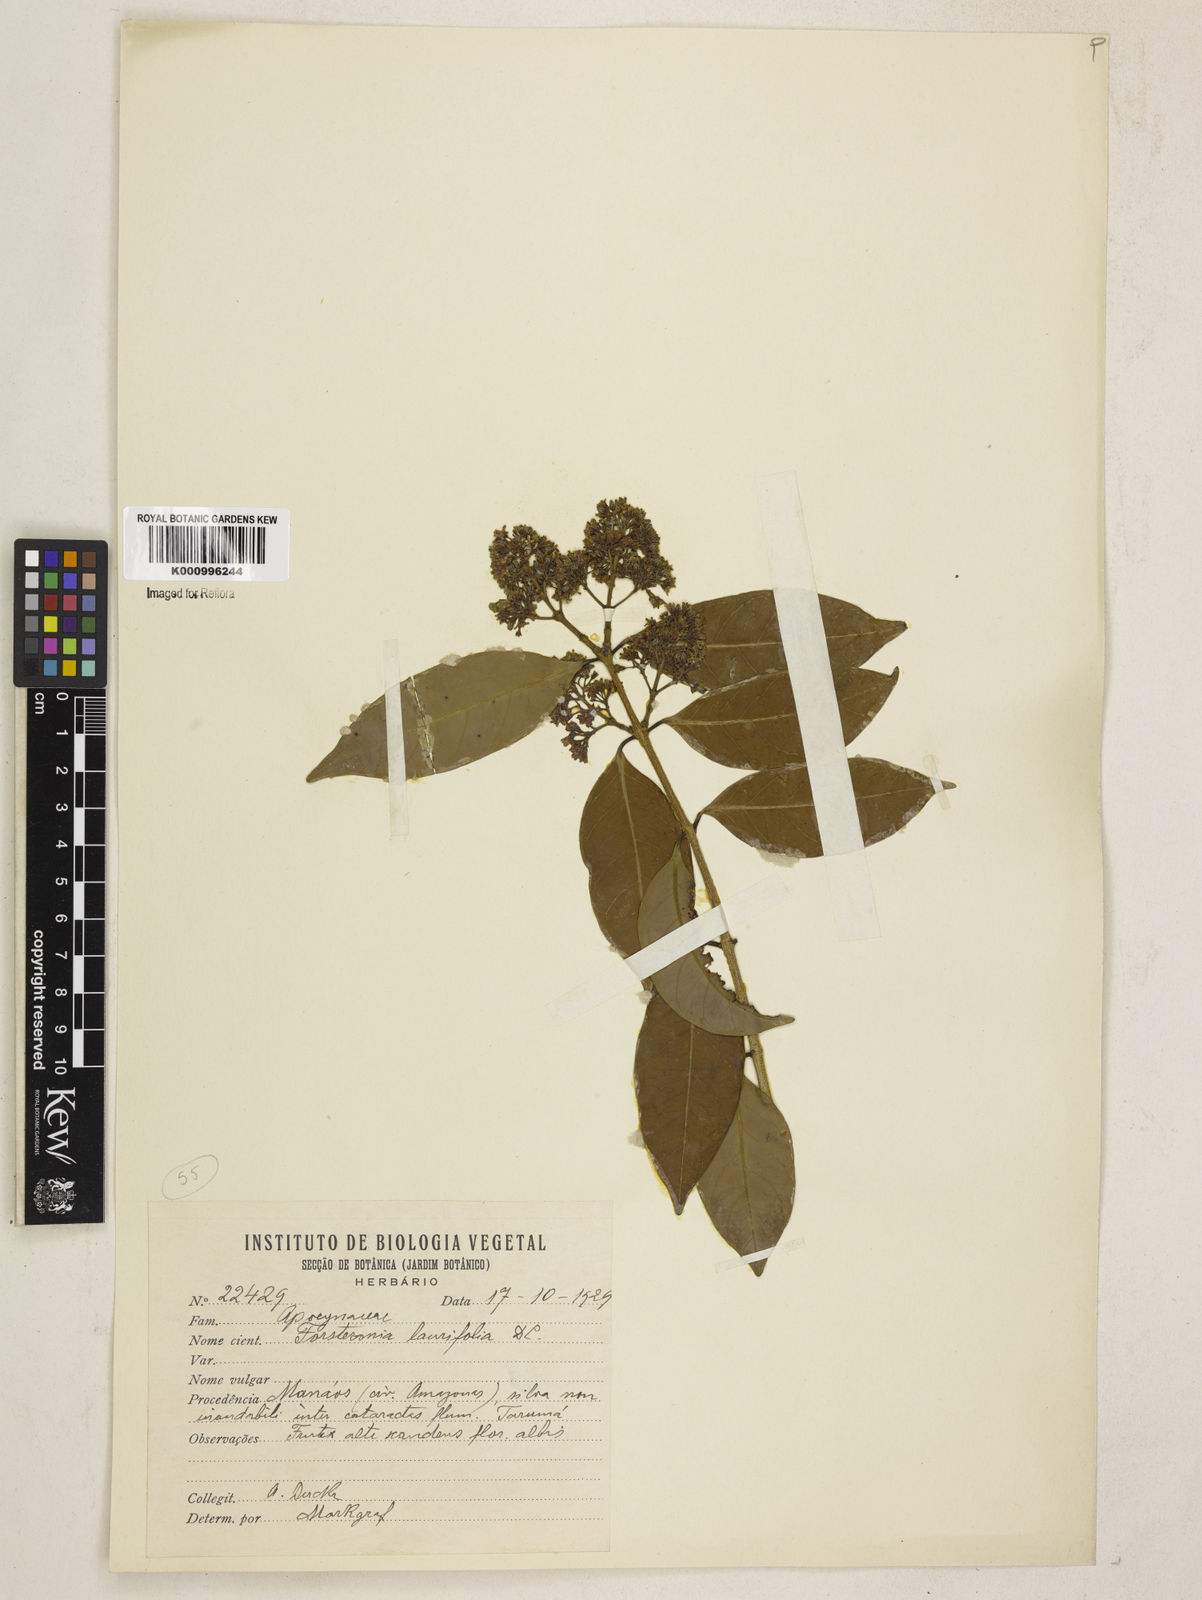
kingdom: Plantae
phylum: Tracheophyta
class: Magnoliopsida
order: Gentianales
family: Apocynaceae
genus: Forsteronia
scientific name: Forsteronia
